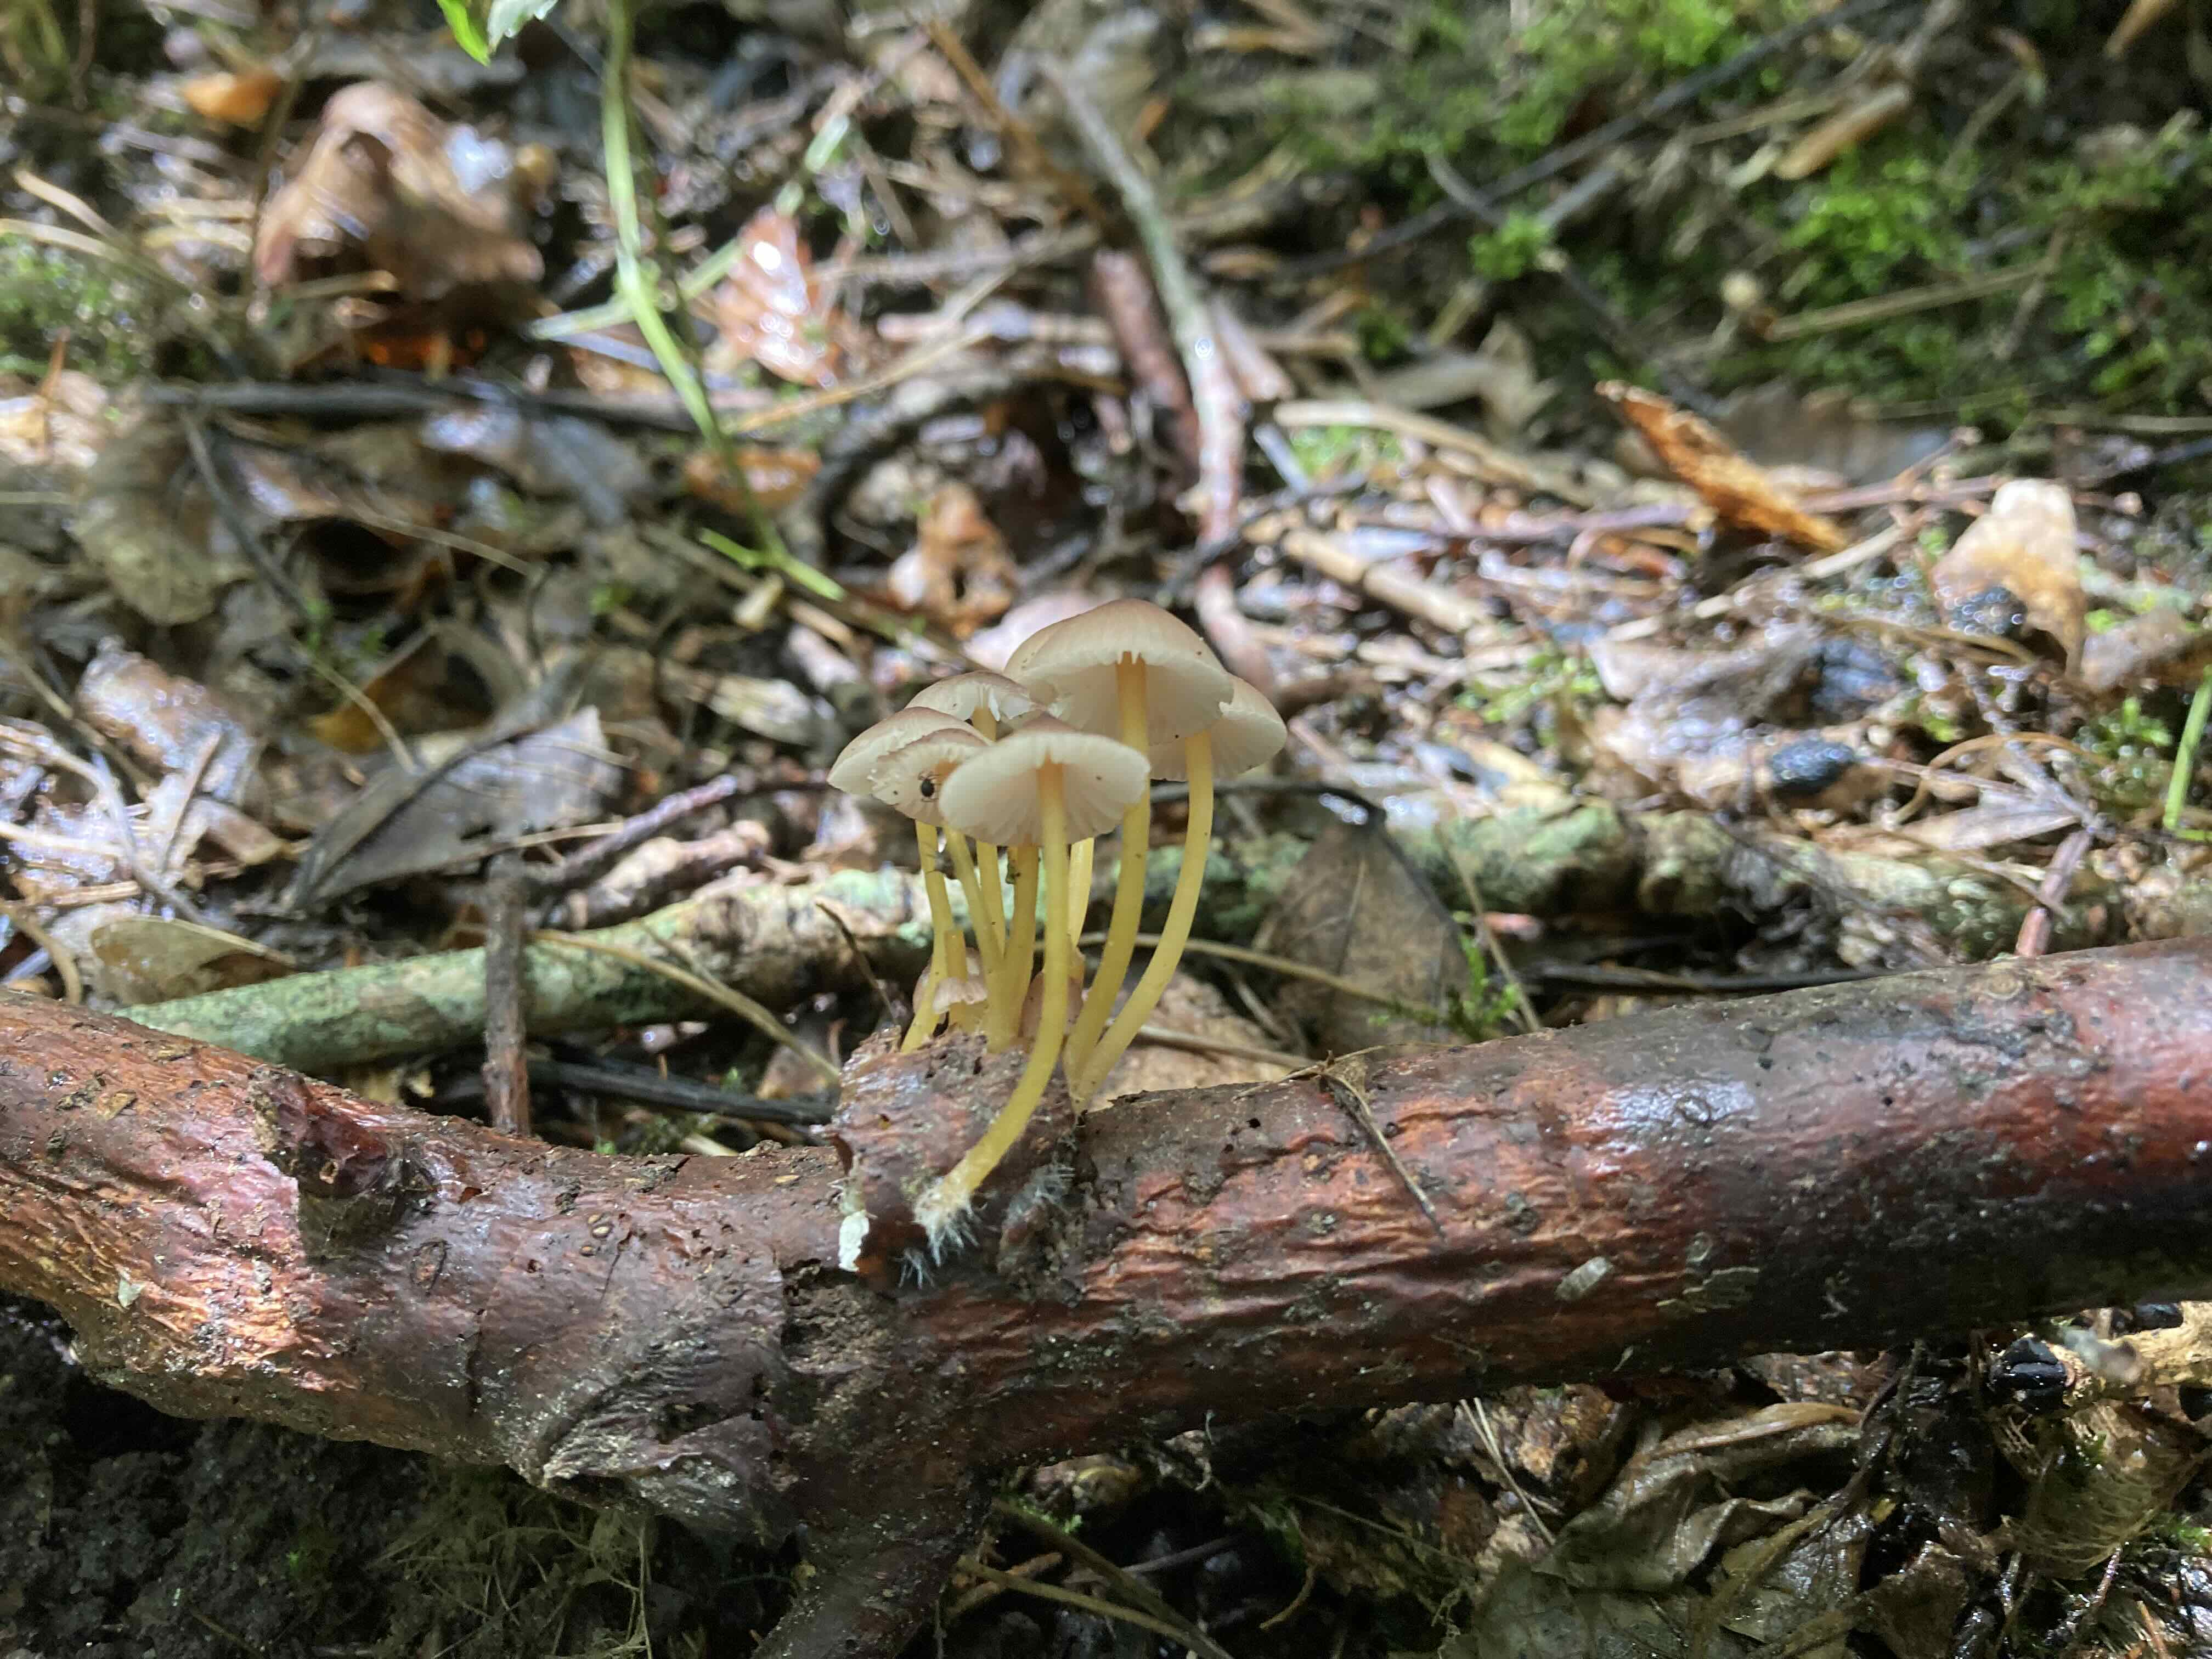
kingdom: Fungi
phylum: Basidiomycota
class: Agaricomycetes
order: Agaricales
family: Mycenaceae
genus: Mycena
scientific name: Mycena renati
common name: smuk huesvamp
